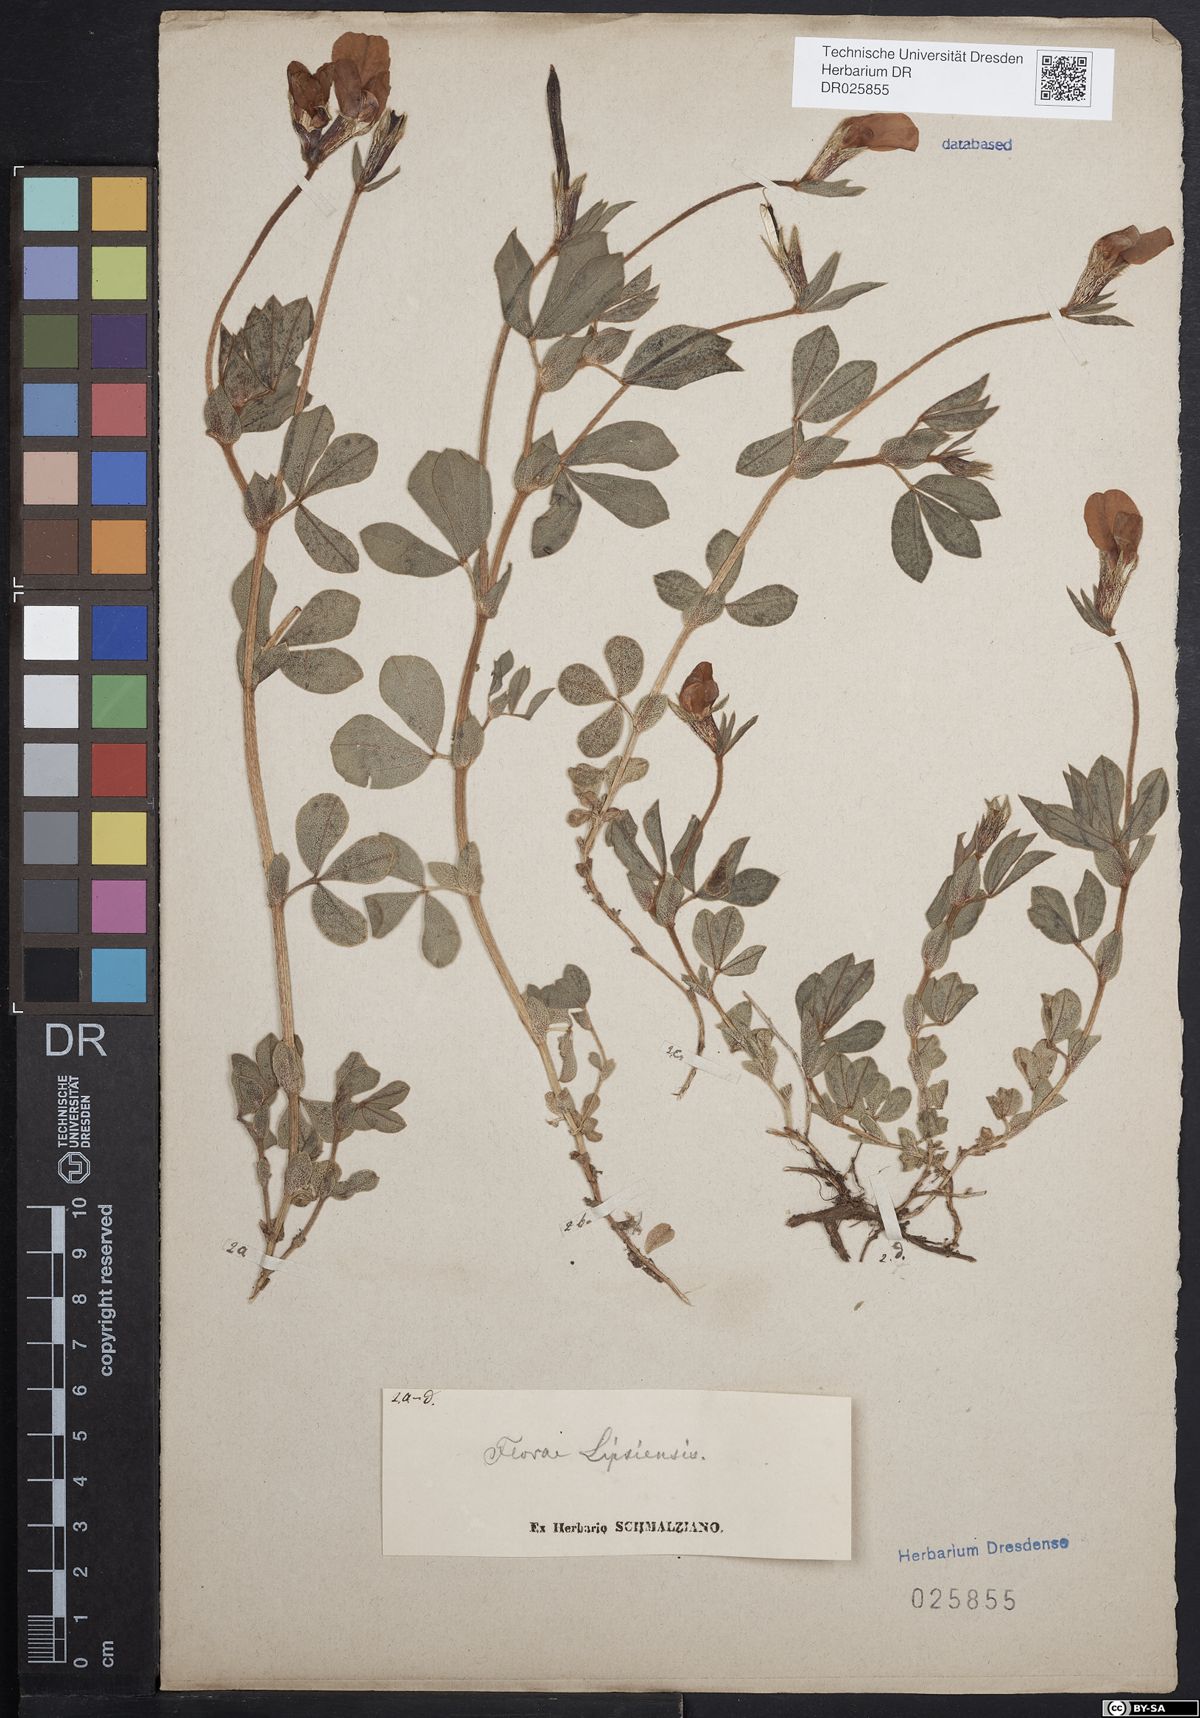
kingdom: Plantae
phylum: Tracheophyta
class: Magnoliopsida
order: Fabales
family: Fabaceae
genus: Lotus
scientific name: Lotus maritimus
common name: Dragon's-teeth
